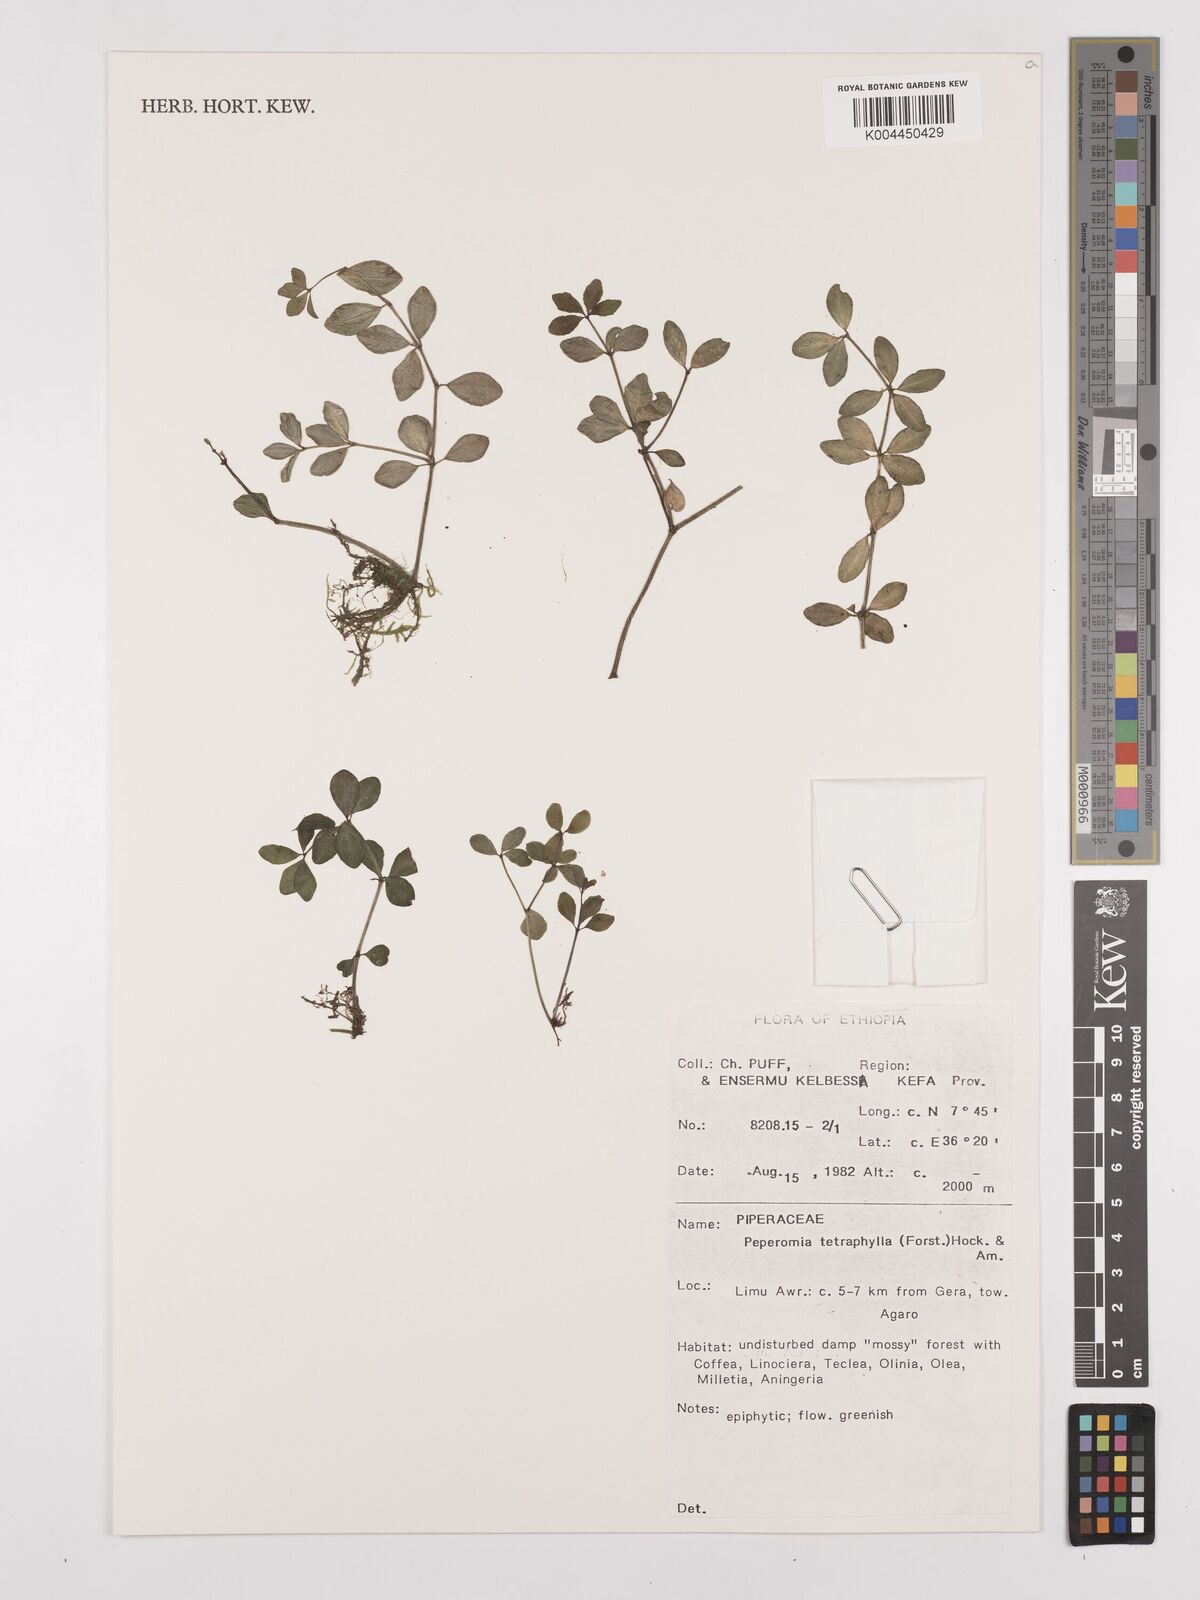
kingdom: Plantae
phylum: Tracheophyta
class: Magnoliopsida
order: Piperales
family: Piperaceae
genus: Peperomia
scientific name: Peperomia tetraphylla
